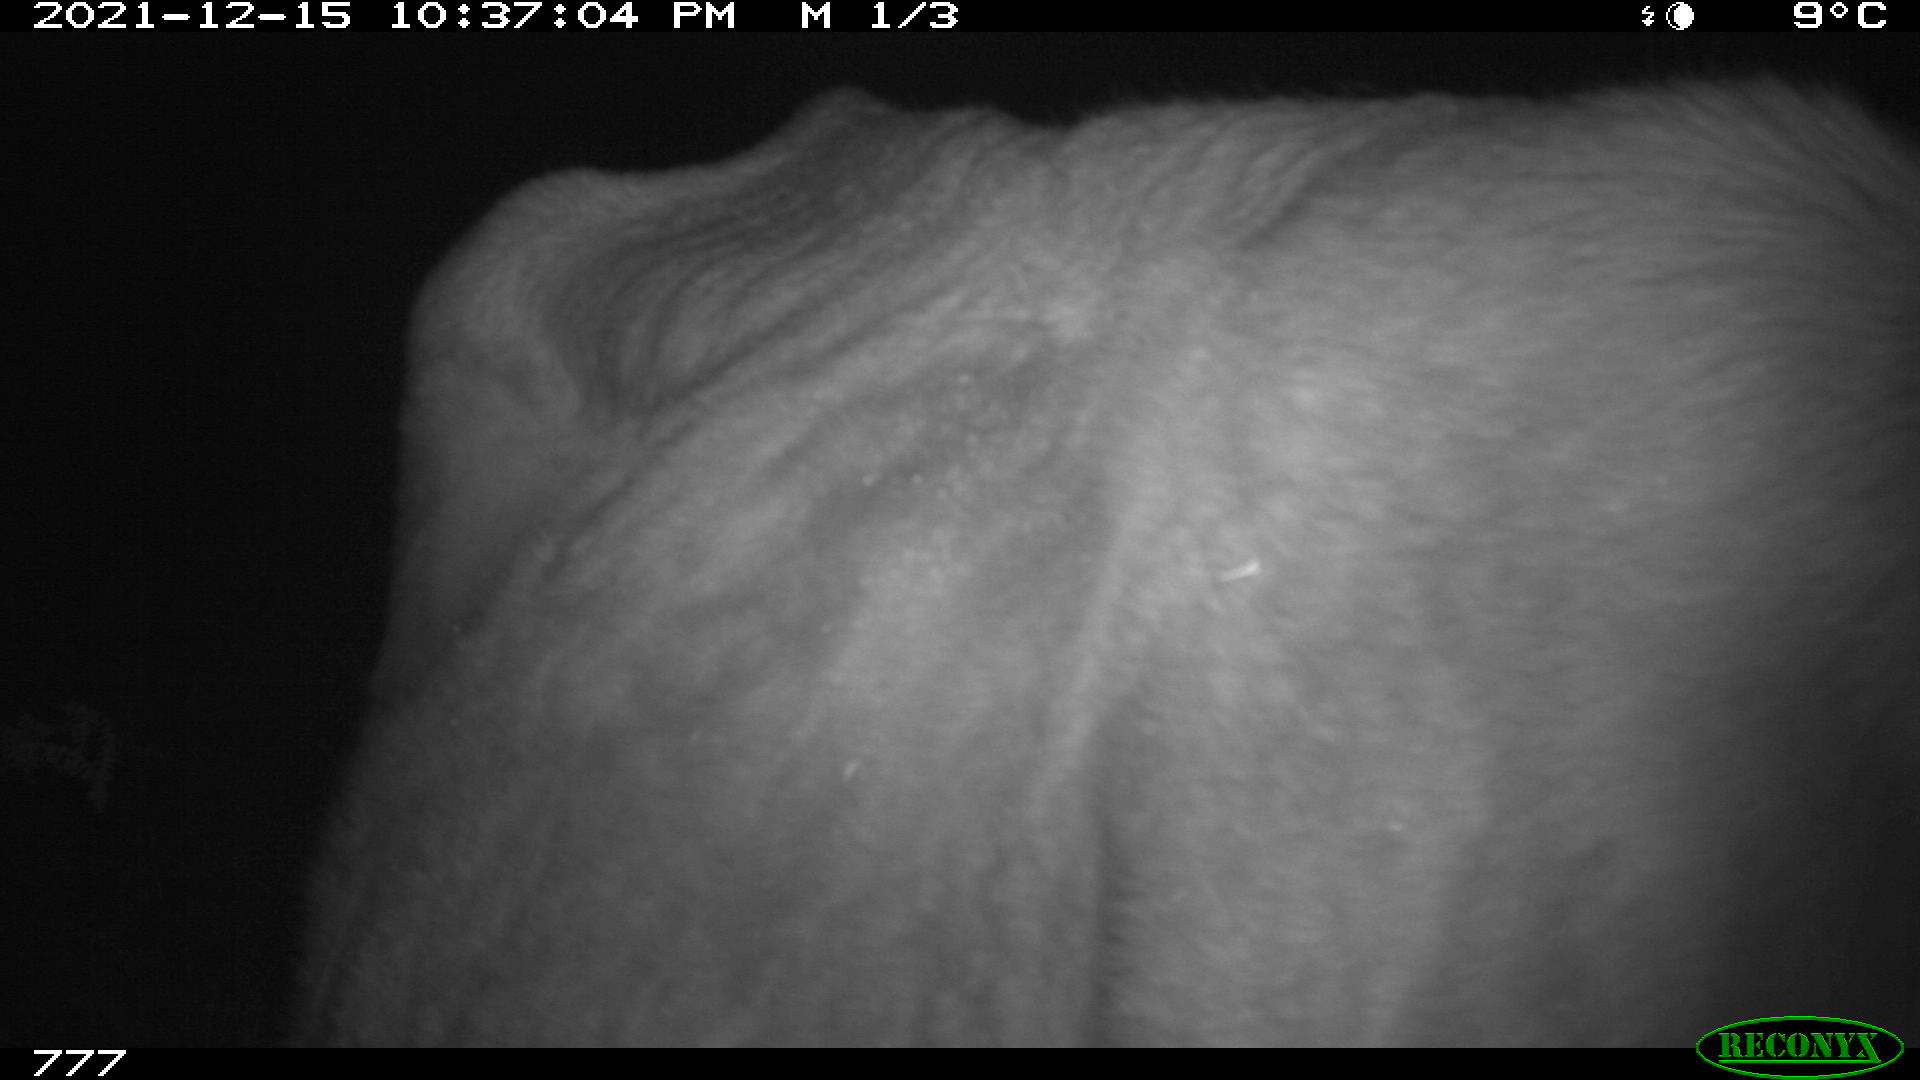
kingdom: Animalia
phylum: Chordata
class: Mammalia
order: Artiodactyla
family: Bovidae
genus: Bos
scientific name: Bos taurus
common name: Domesticated cattle
